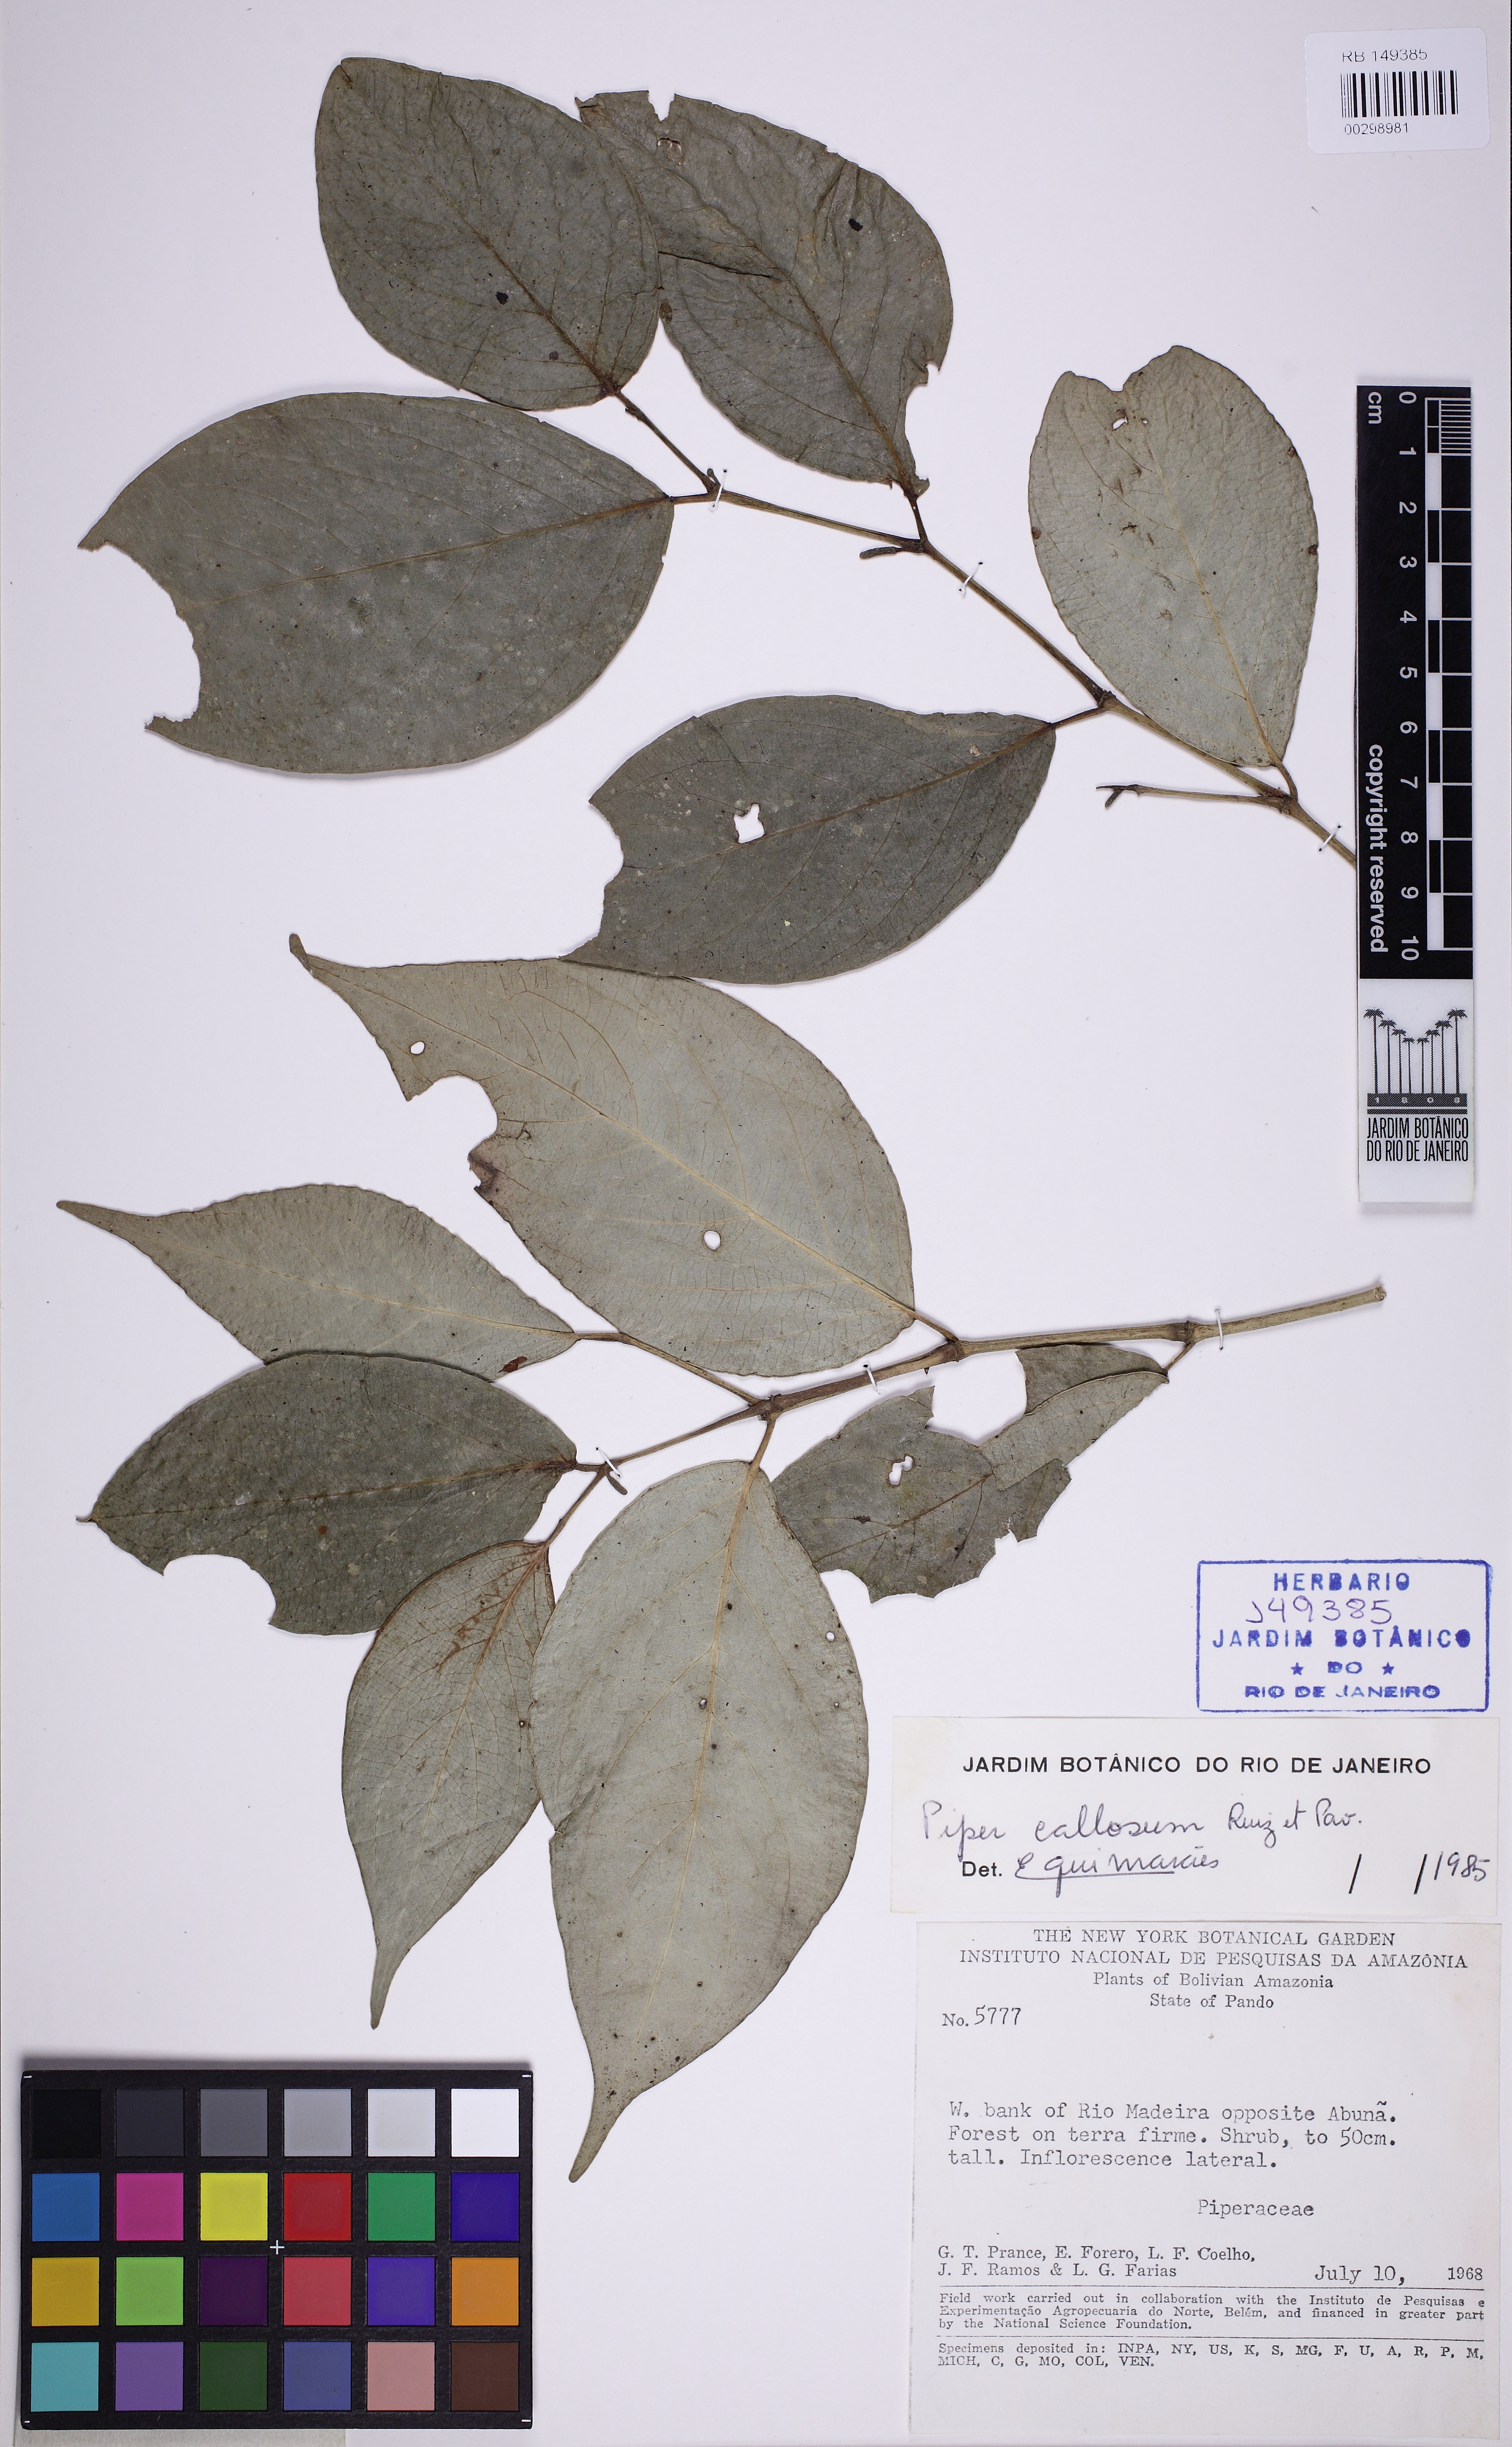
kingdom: Plantae
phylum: Tracheophyta
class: Magnoliopsida
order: Piperales
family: Piperaceae
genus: Piper
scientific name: Piper callosum
